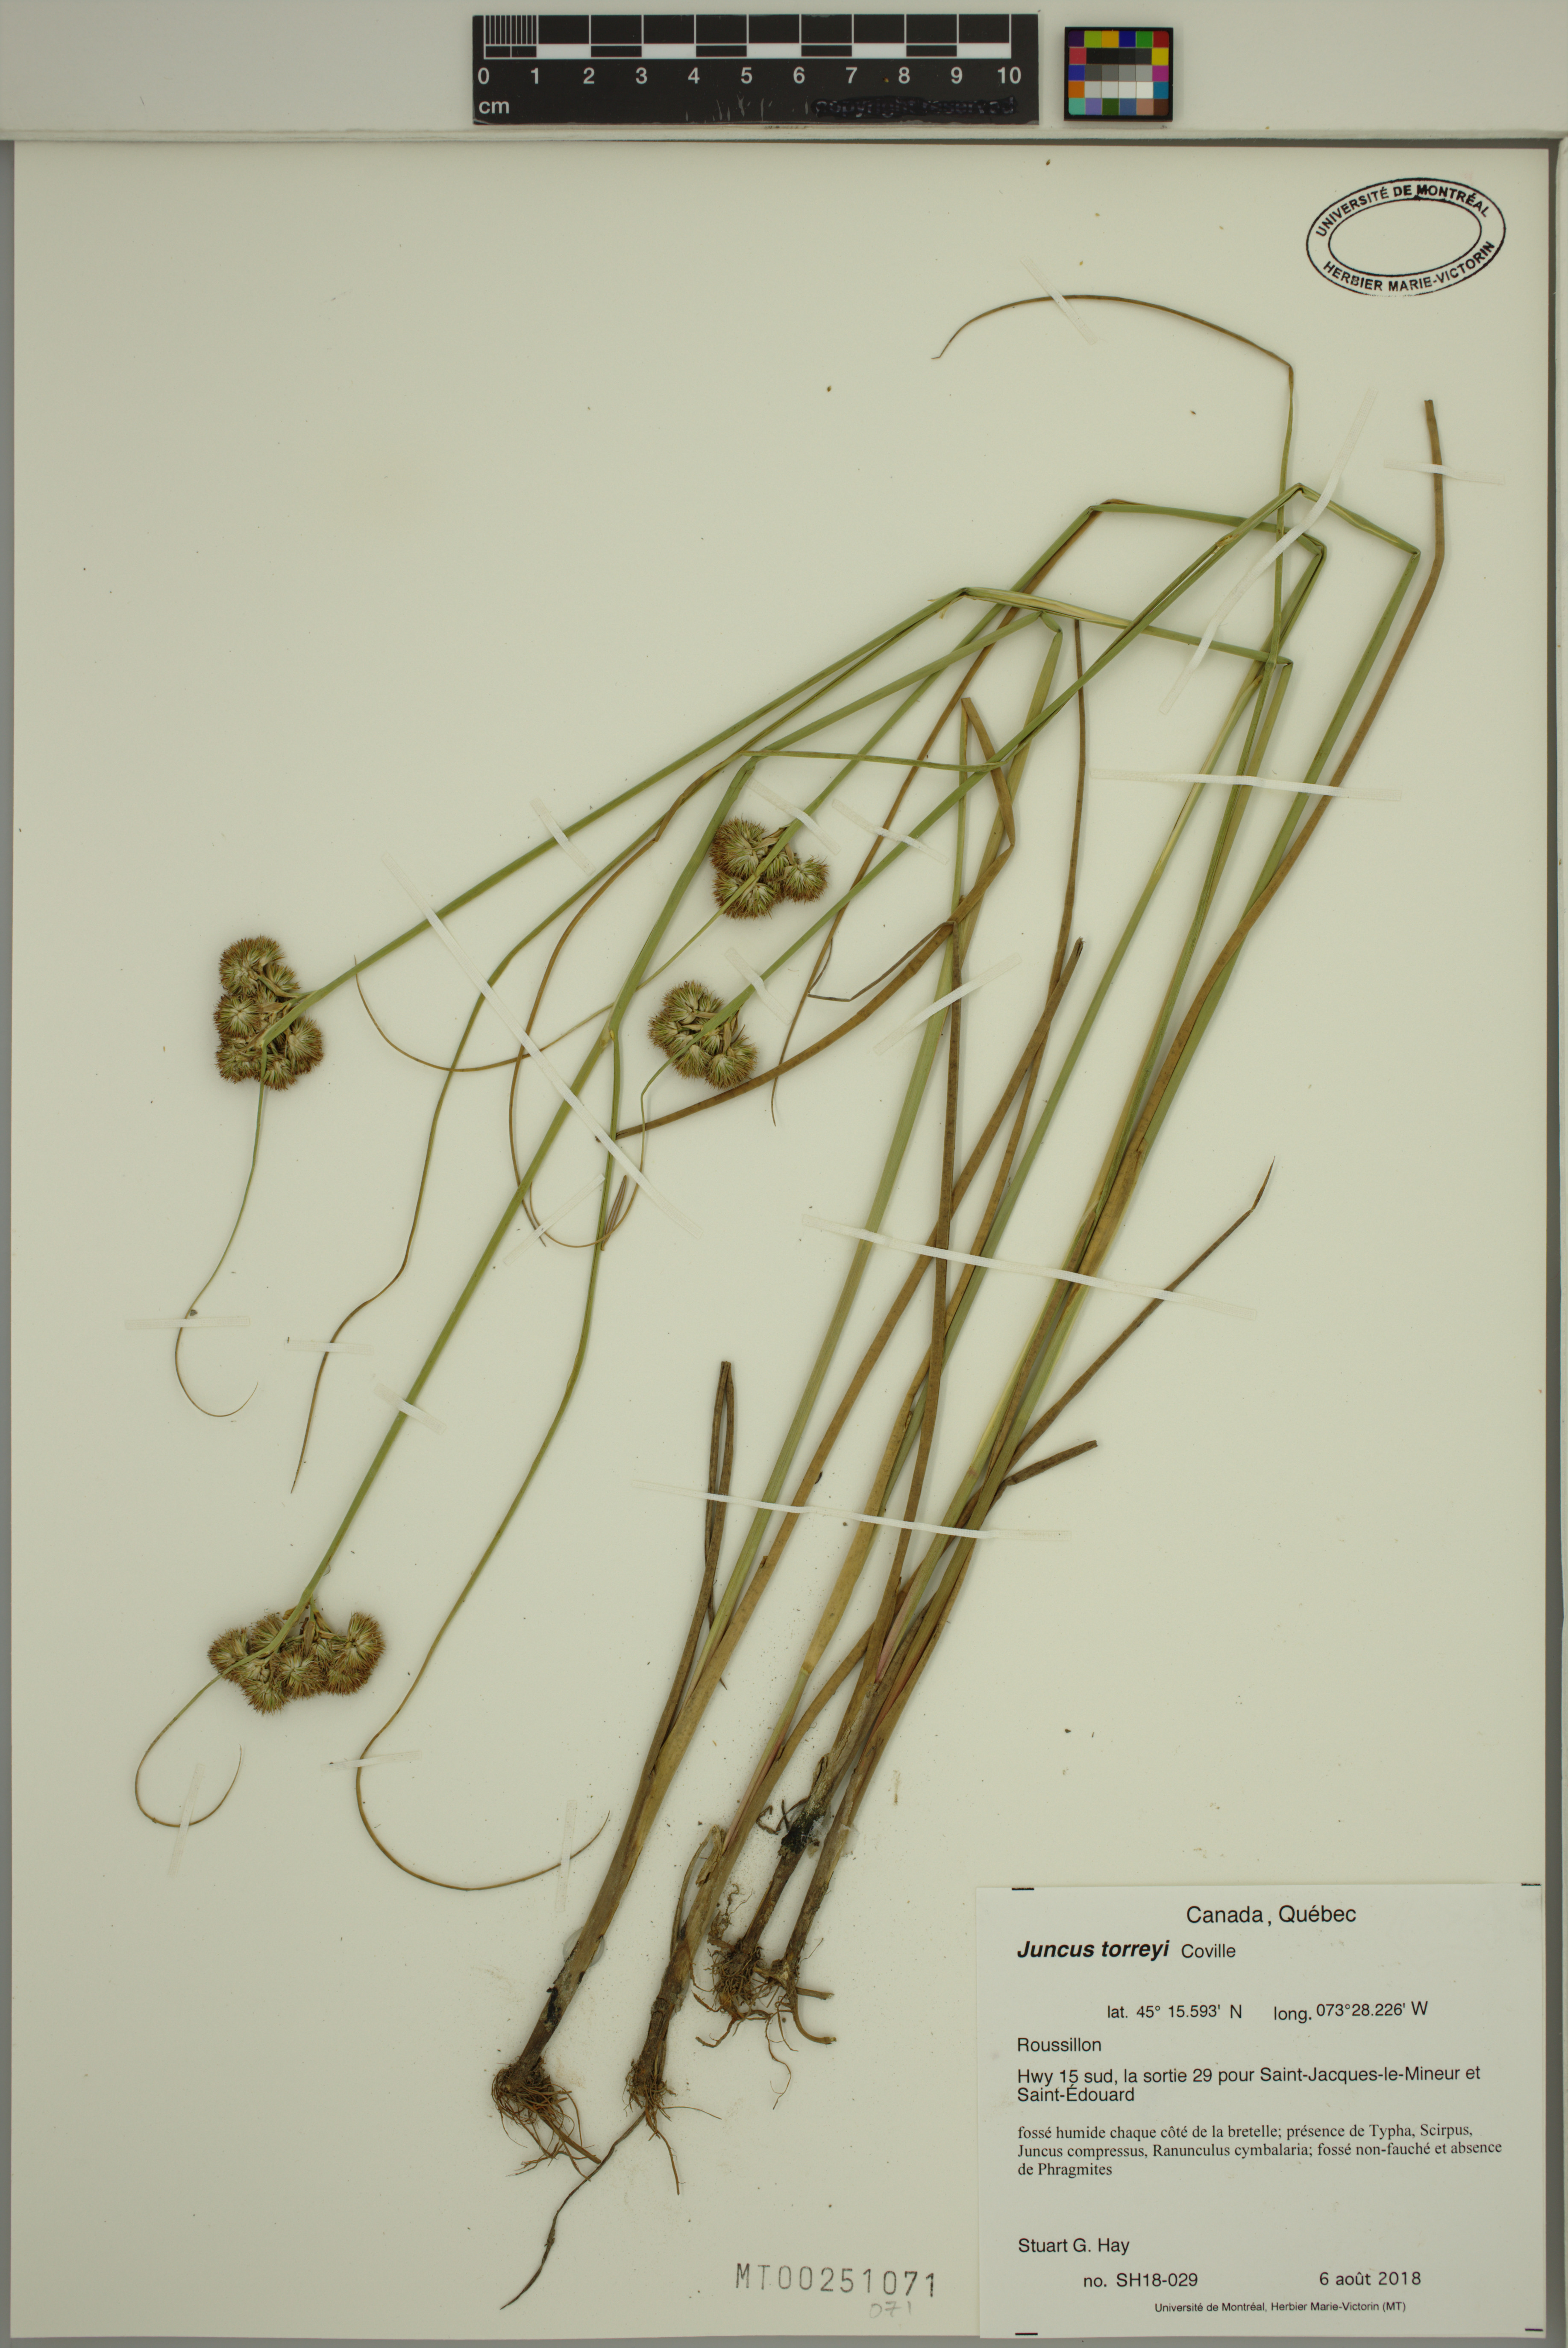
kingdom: Plantae
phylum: Tracheophyta
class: Liliopsida
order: Poales
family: Juncaceae
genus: Juncus
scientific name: Juncus torreyi
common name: Torrey's rush
